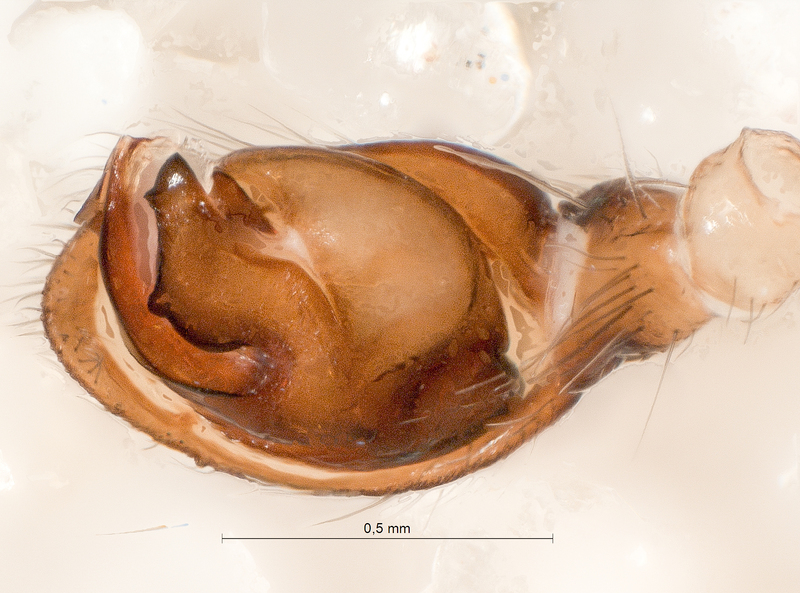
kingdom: Animalia
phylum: Arthropoda
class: Arachnida
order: Araneae
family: Gnaphosidae
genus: Haplodrassus
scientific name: Haplodrassus dalmatensis
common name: Heath grasper
